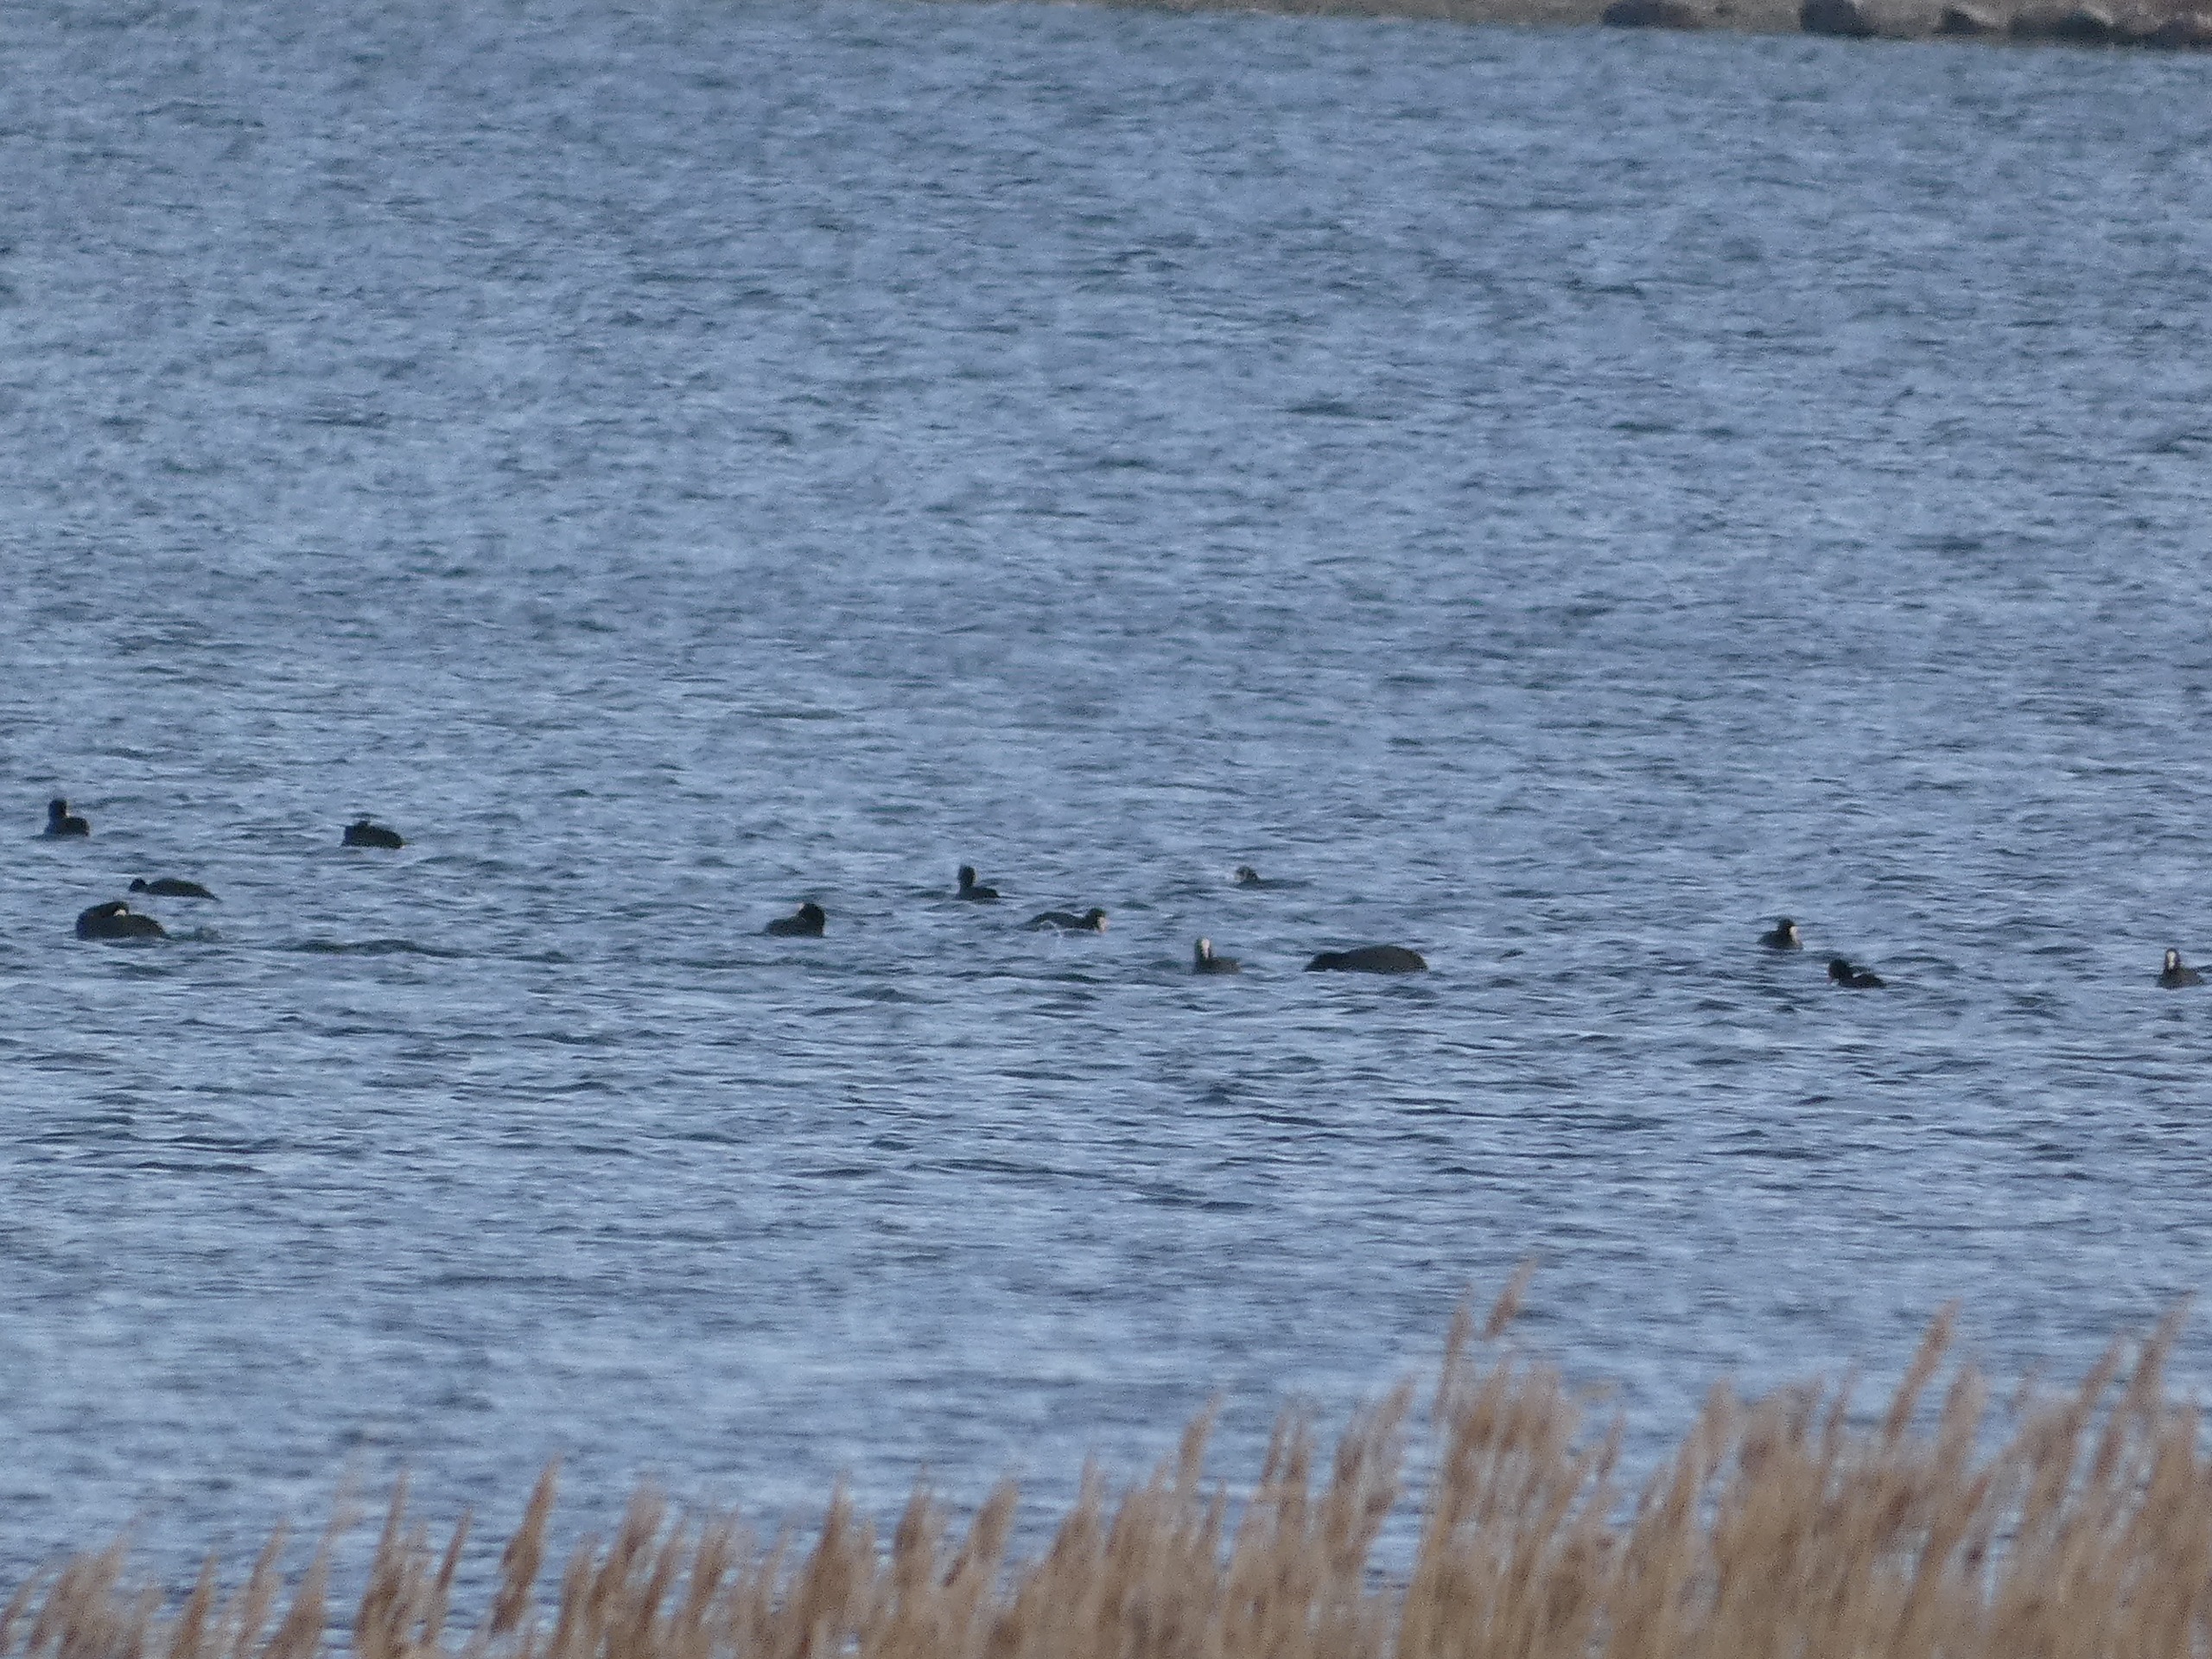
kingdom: Animalia
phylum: Chordata
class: Aves
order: Gruiformes
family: Rallidae
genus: Fulica
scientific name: Fulica atra
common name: Blishøne
